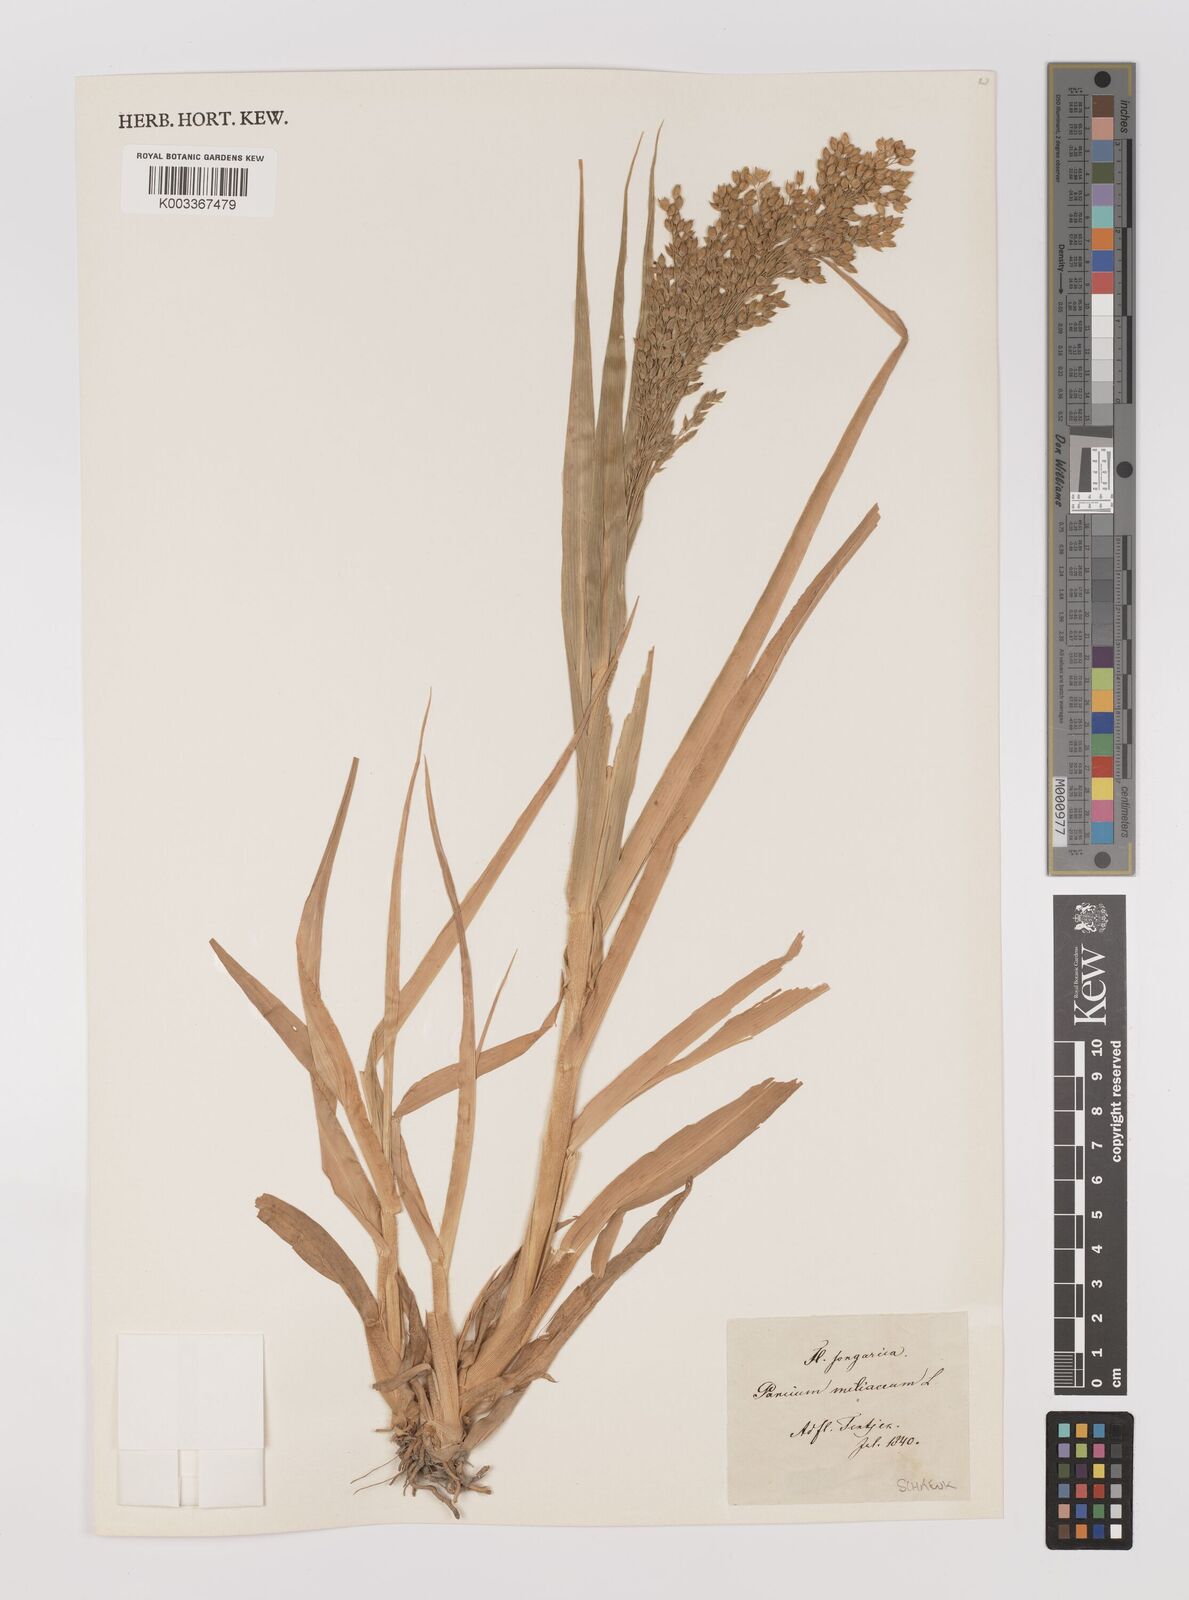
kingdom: Plantae
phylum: Tracheophyta
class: Liliopsida
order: Poales
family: Poaceae
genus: Panicum
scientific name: Panicum miliaceum
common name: Common millet
